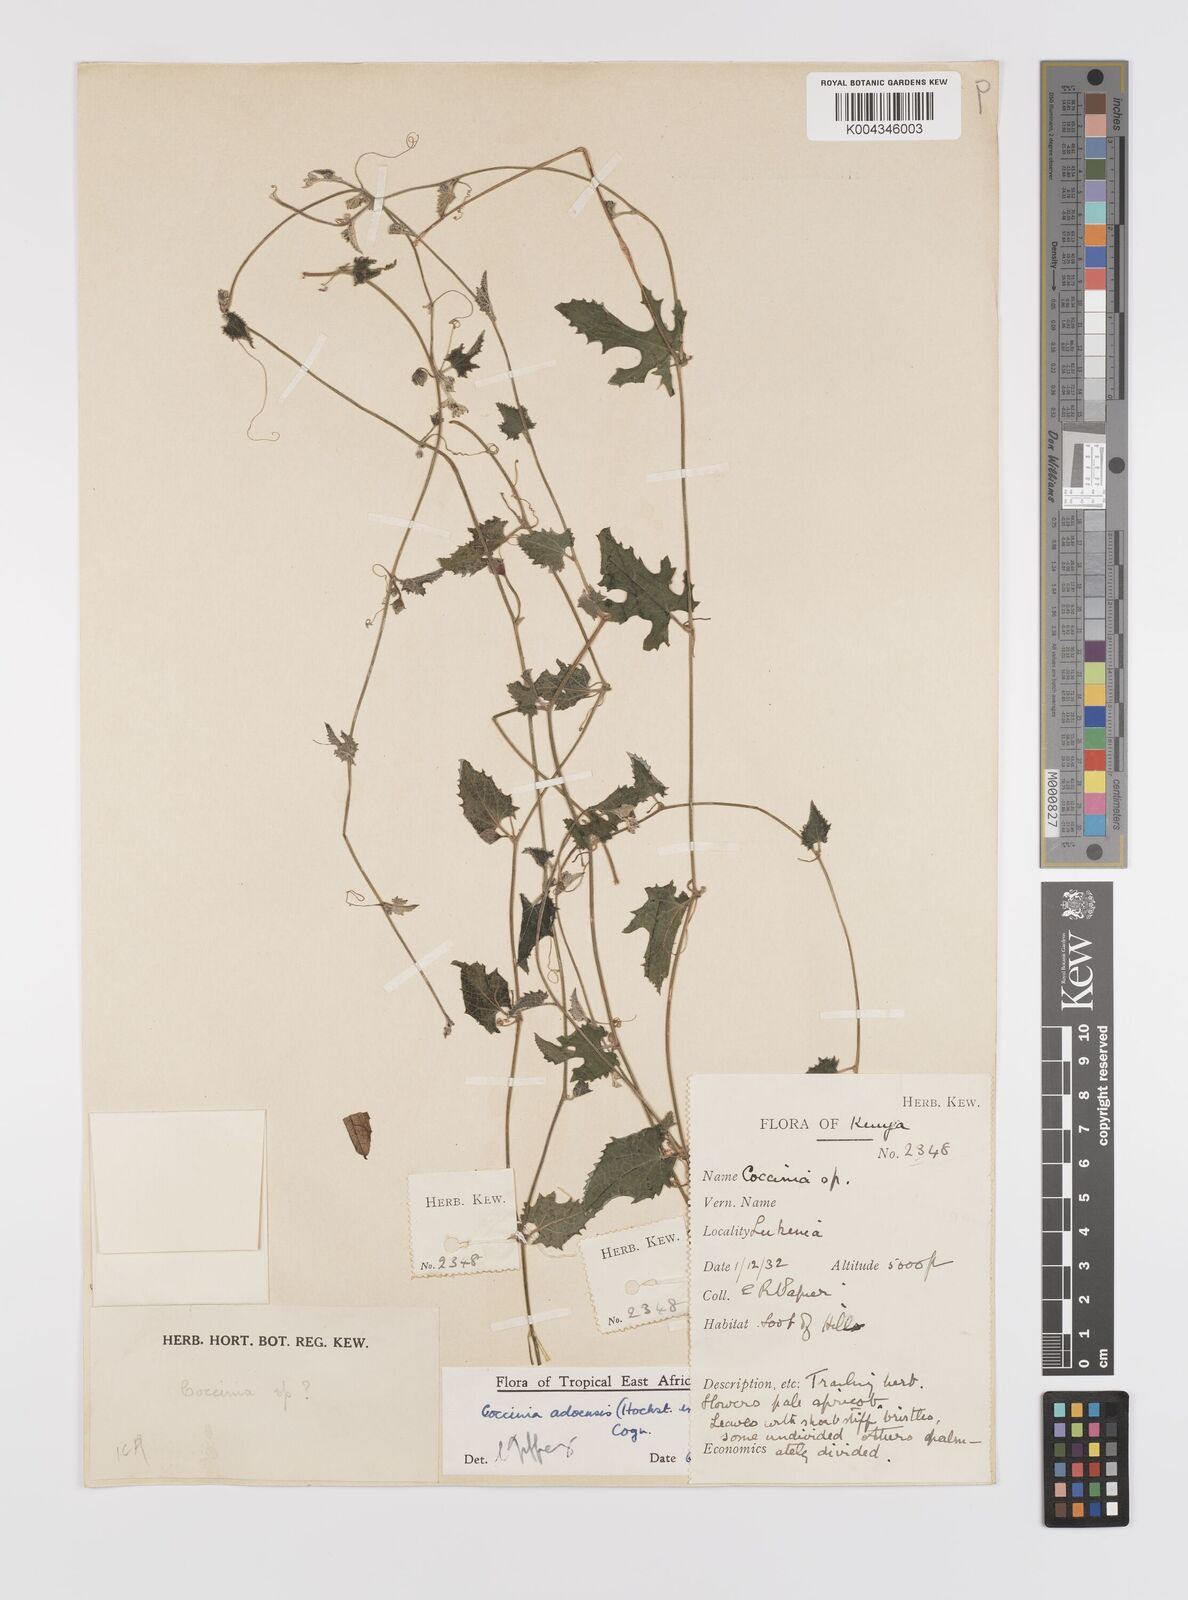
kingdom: Plantae
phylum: Tracheophyta
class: Magnoliopsida
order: Cucurbitales
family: Cucurbitaceae
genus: Coccinia
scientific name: Coccinia adoensis
